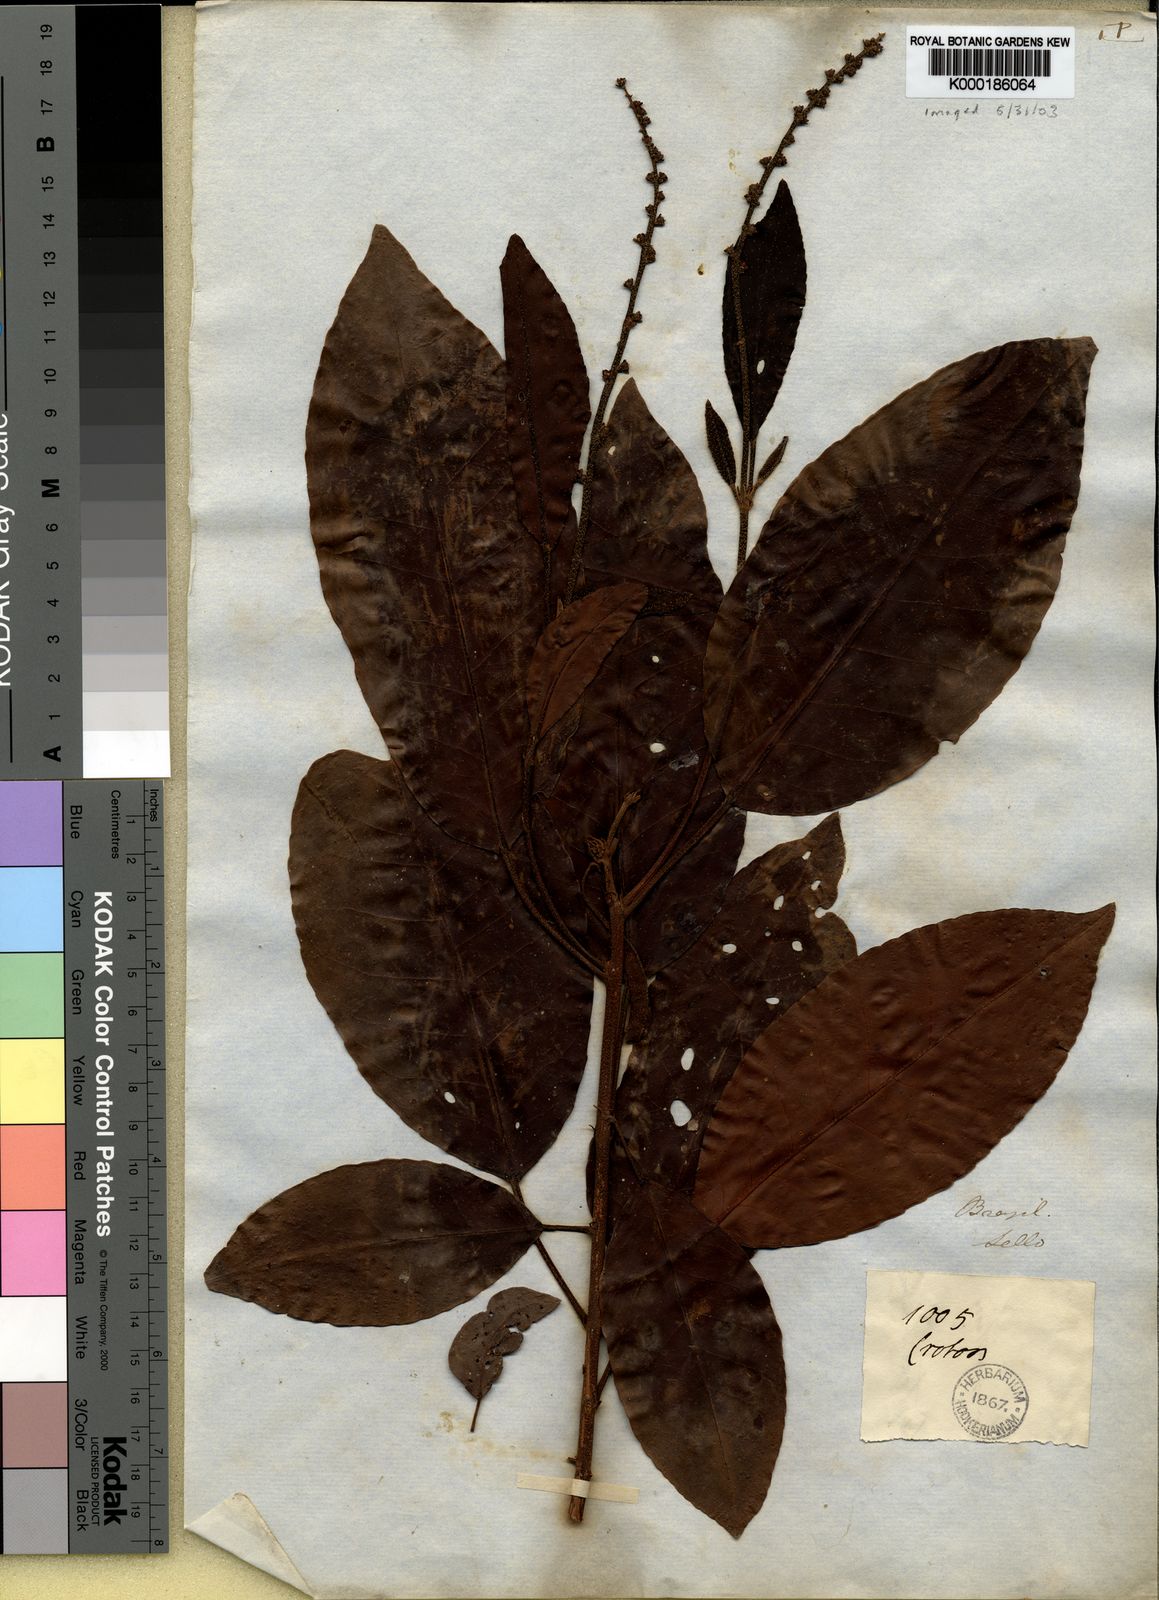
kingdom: Plantae
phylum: Tracheophyta
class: Magnoliopsida
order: Malpighiales
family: Euphorbiaceae
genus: Croton
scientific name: Croton
